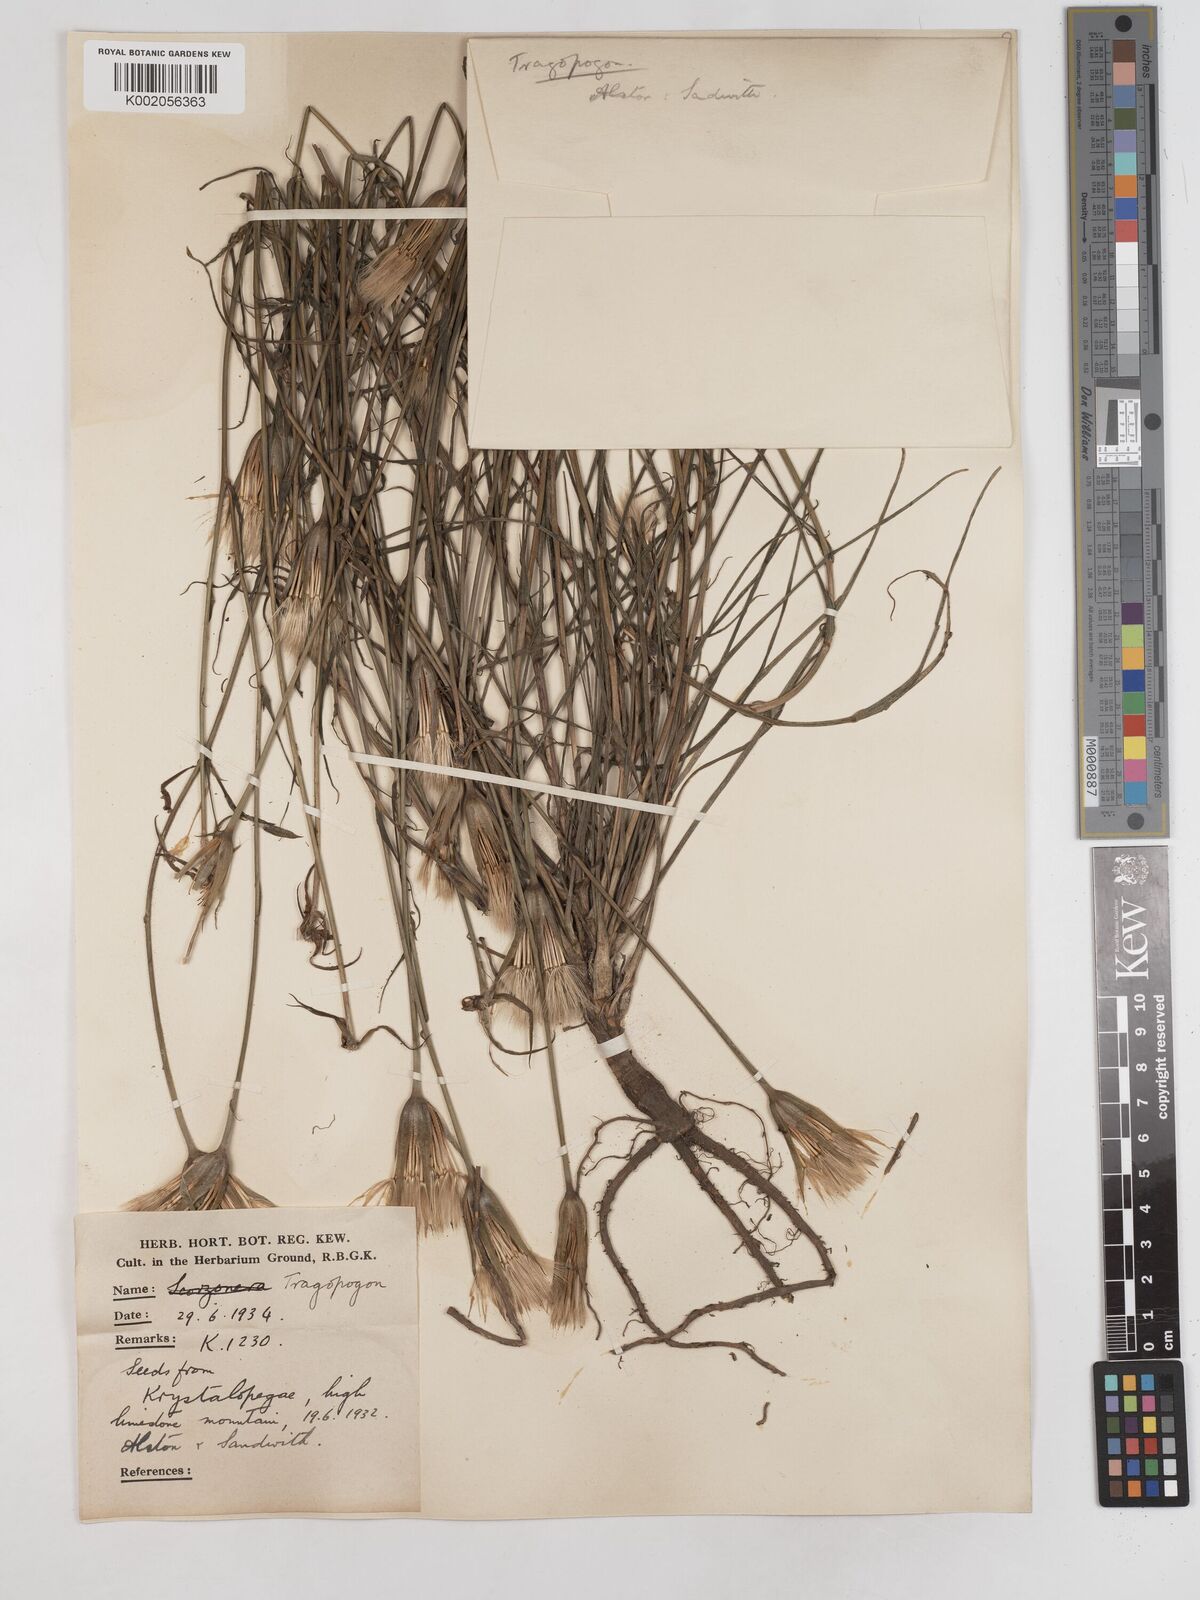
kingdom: Plantae
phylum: Tracheophyta
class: Magnoliopsida
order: Asterales
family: Asteraceae
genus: Tragopogon
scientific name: Tragopogon balcanicus
